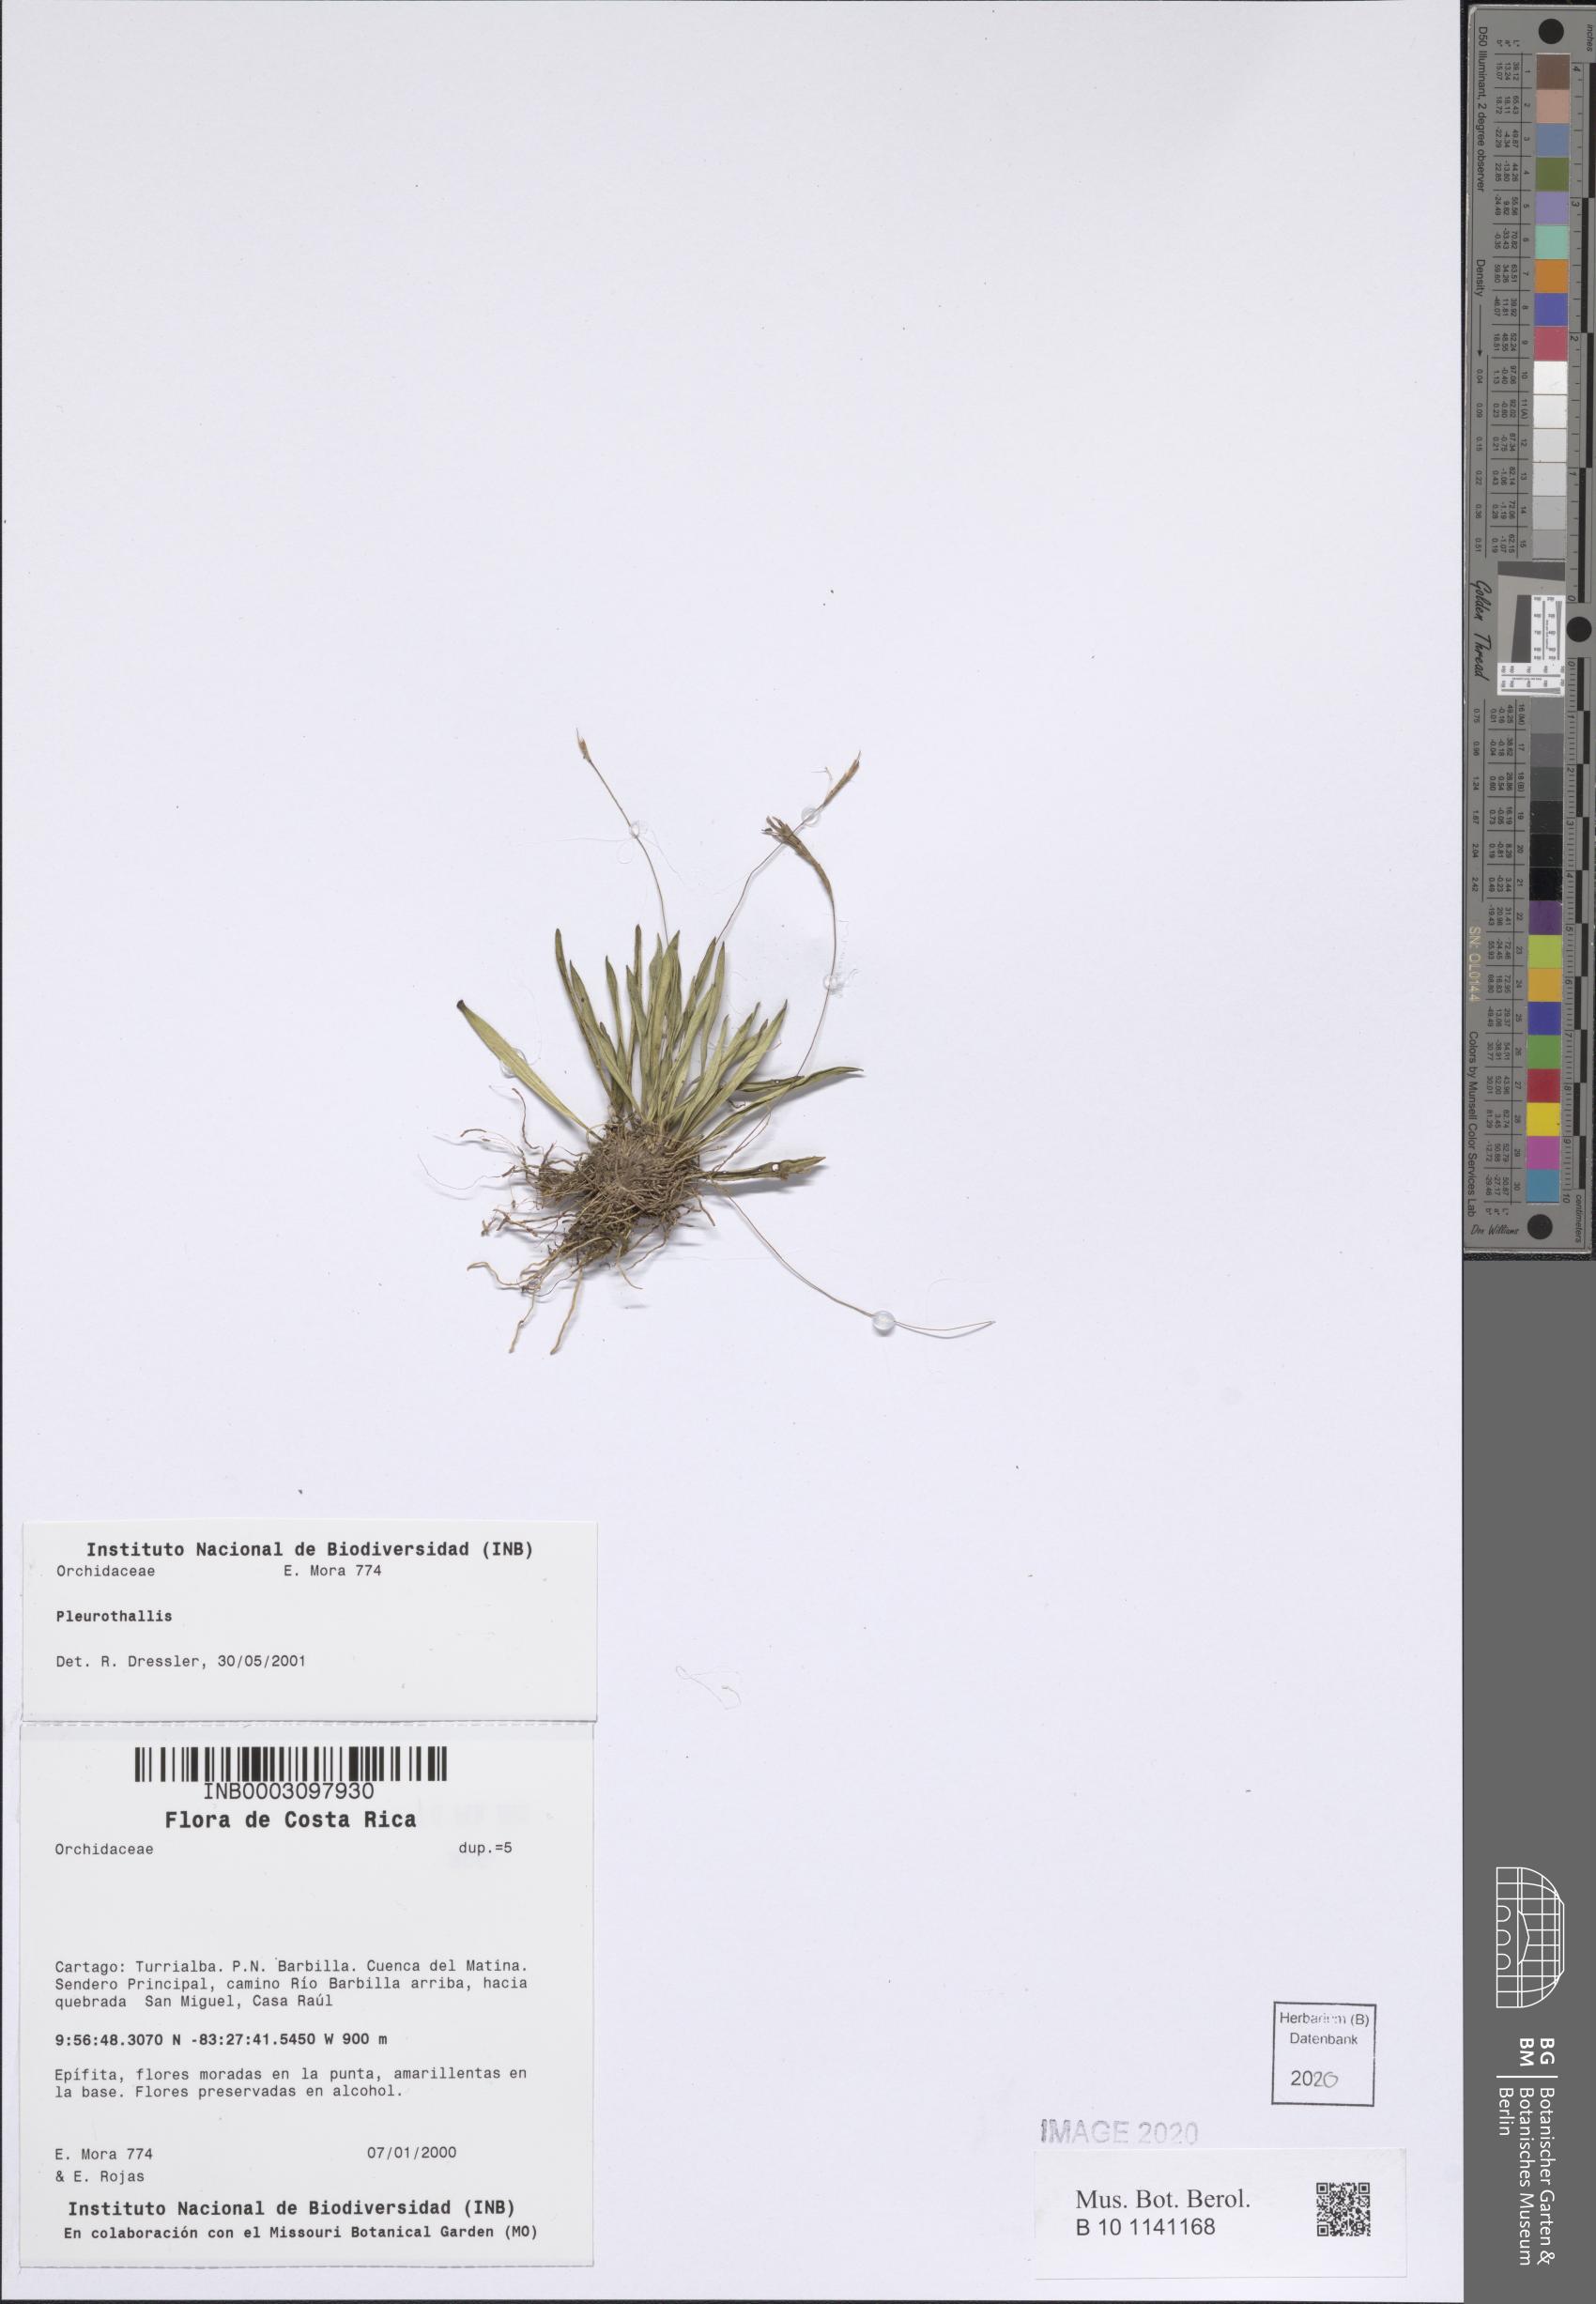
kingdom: Plantae
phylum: Tracheophyta
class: Liliopsida
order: Asparagales
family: Orchidaceae
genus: Pleurothallis
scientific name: Pleurothallis
